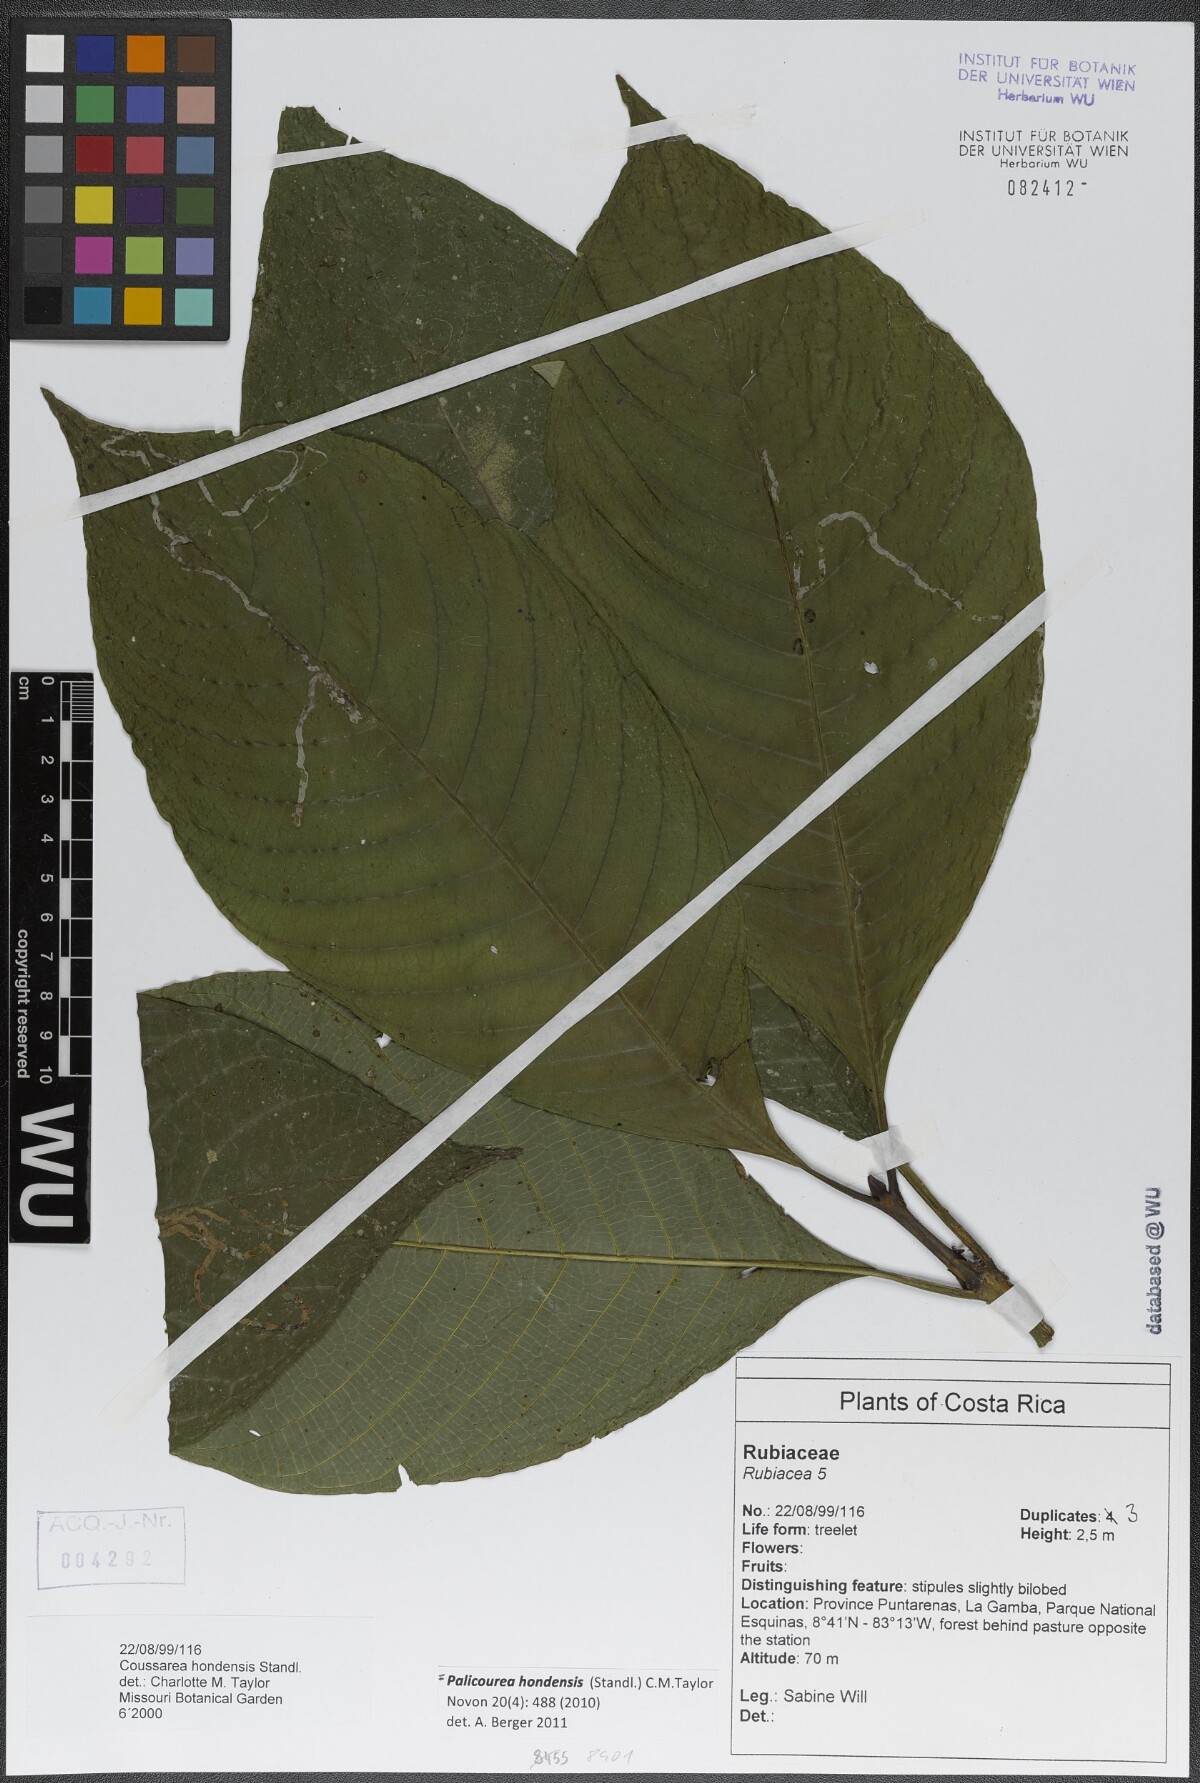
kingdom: Plantae
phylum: Tracheophyta
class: Magnoliopsida
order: Gentianales
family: Rubiaceae
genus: Palicourea
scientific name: Palicourea hondensis
